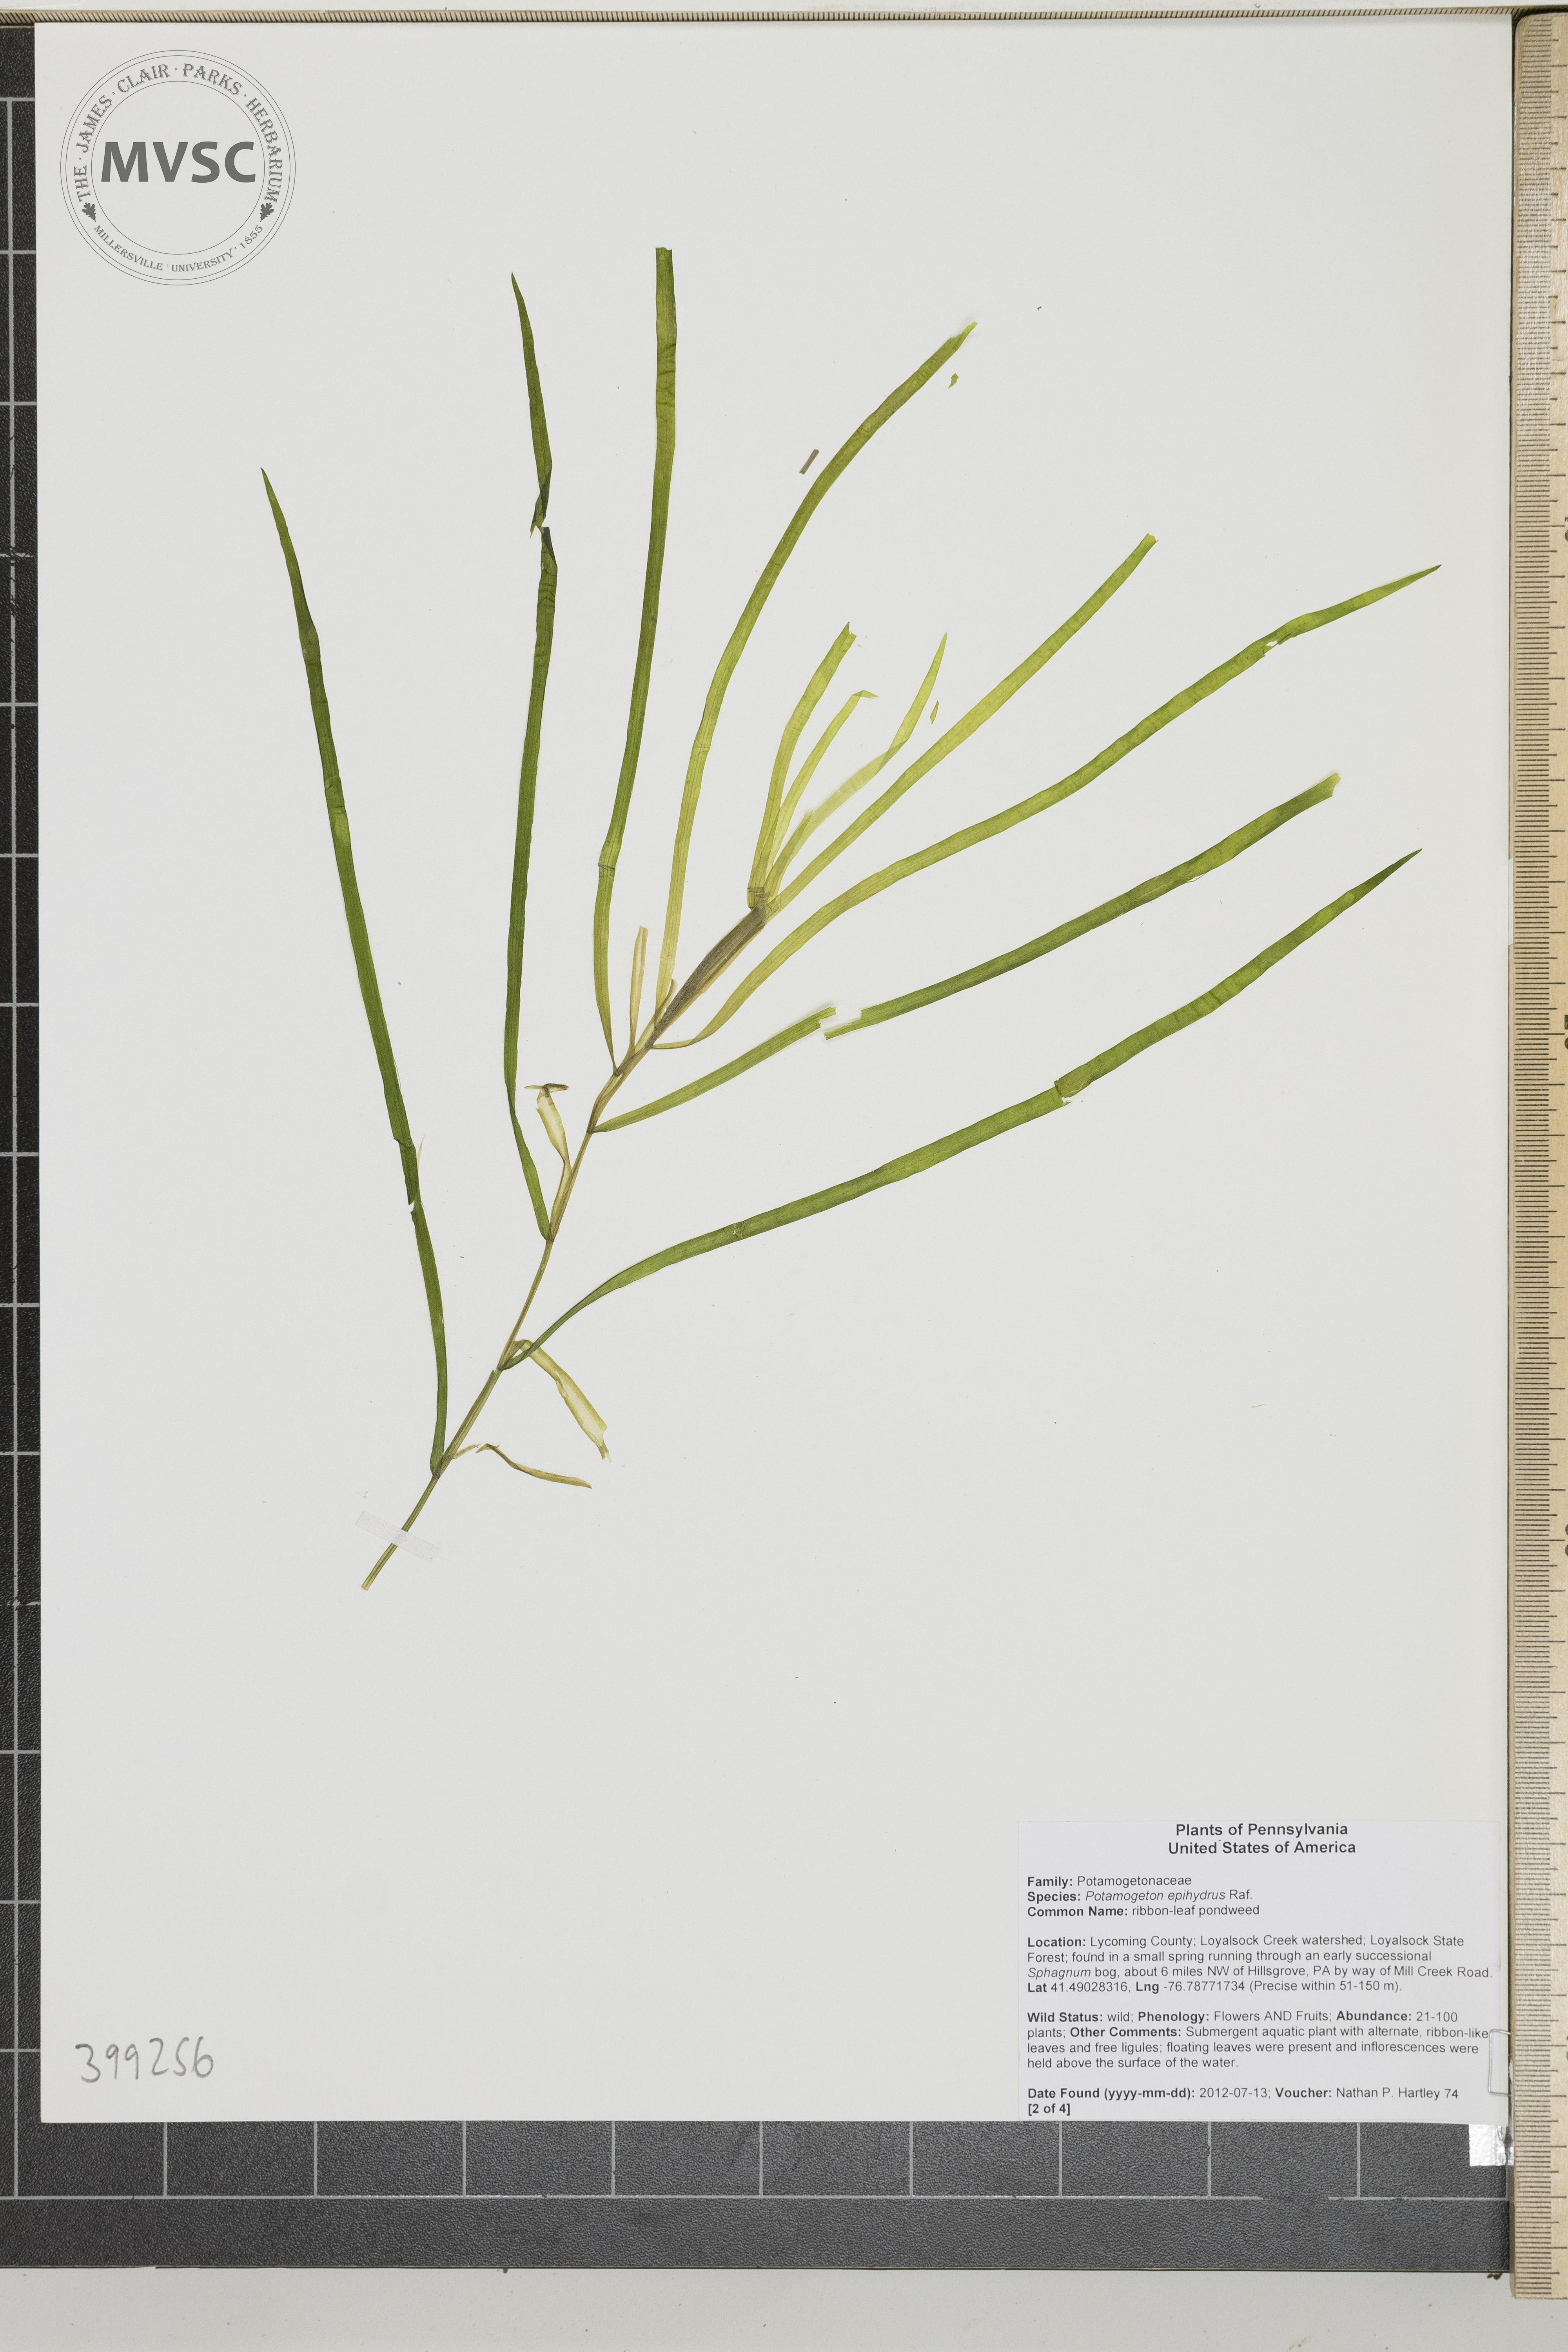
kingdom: Plantae
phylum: Tracheophyta
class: Liliopsida
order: Alismatales
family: Potamogetonaceae
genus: Potamogeton
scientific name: Potamogeton epihydrus
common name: Ribbonleaf pondweed
